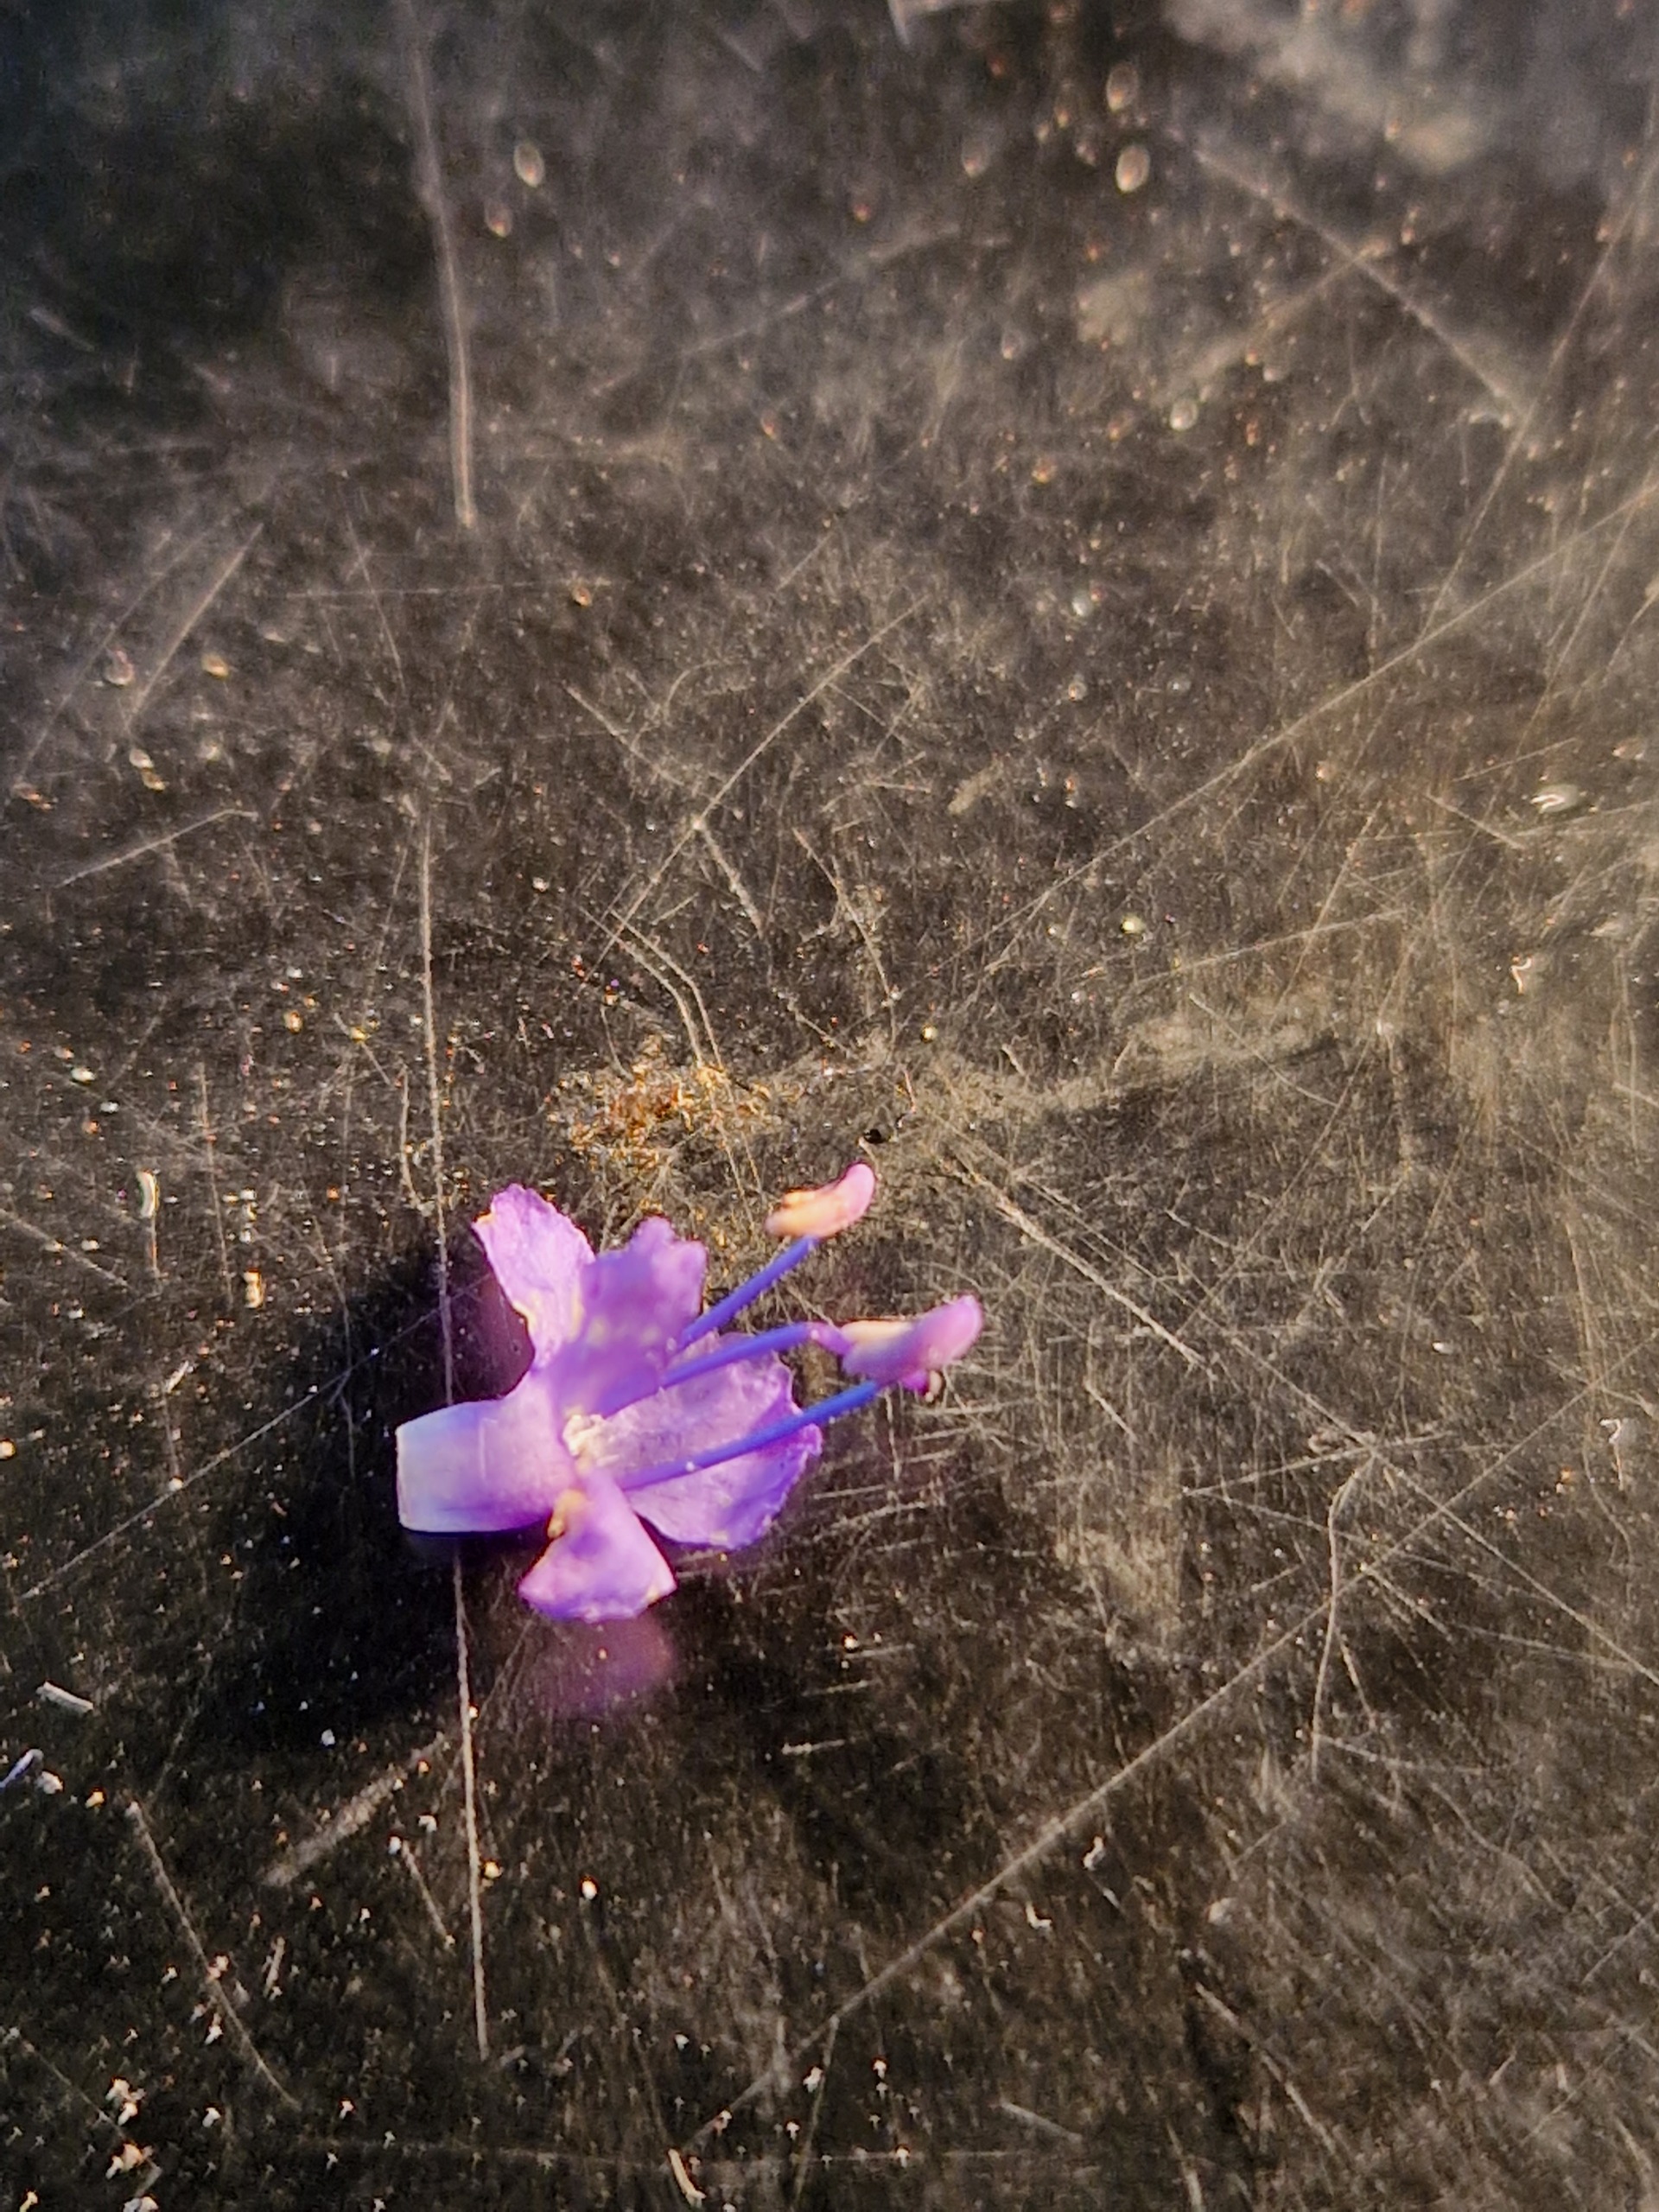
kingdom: Plantae
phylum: Tracheophyta
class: Magnoliopsida
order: Lamiales
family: Plantaginaceae
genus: Veronica
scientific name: Veronica longifolia
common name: Langbladet ærenpris
